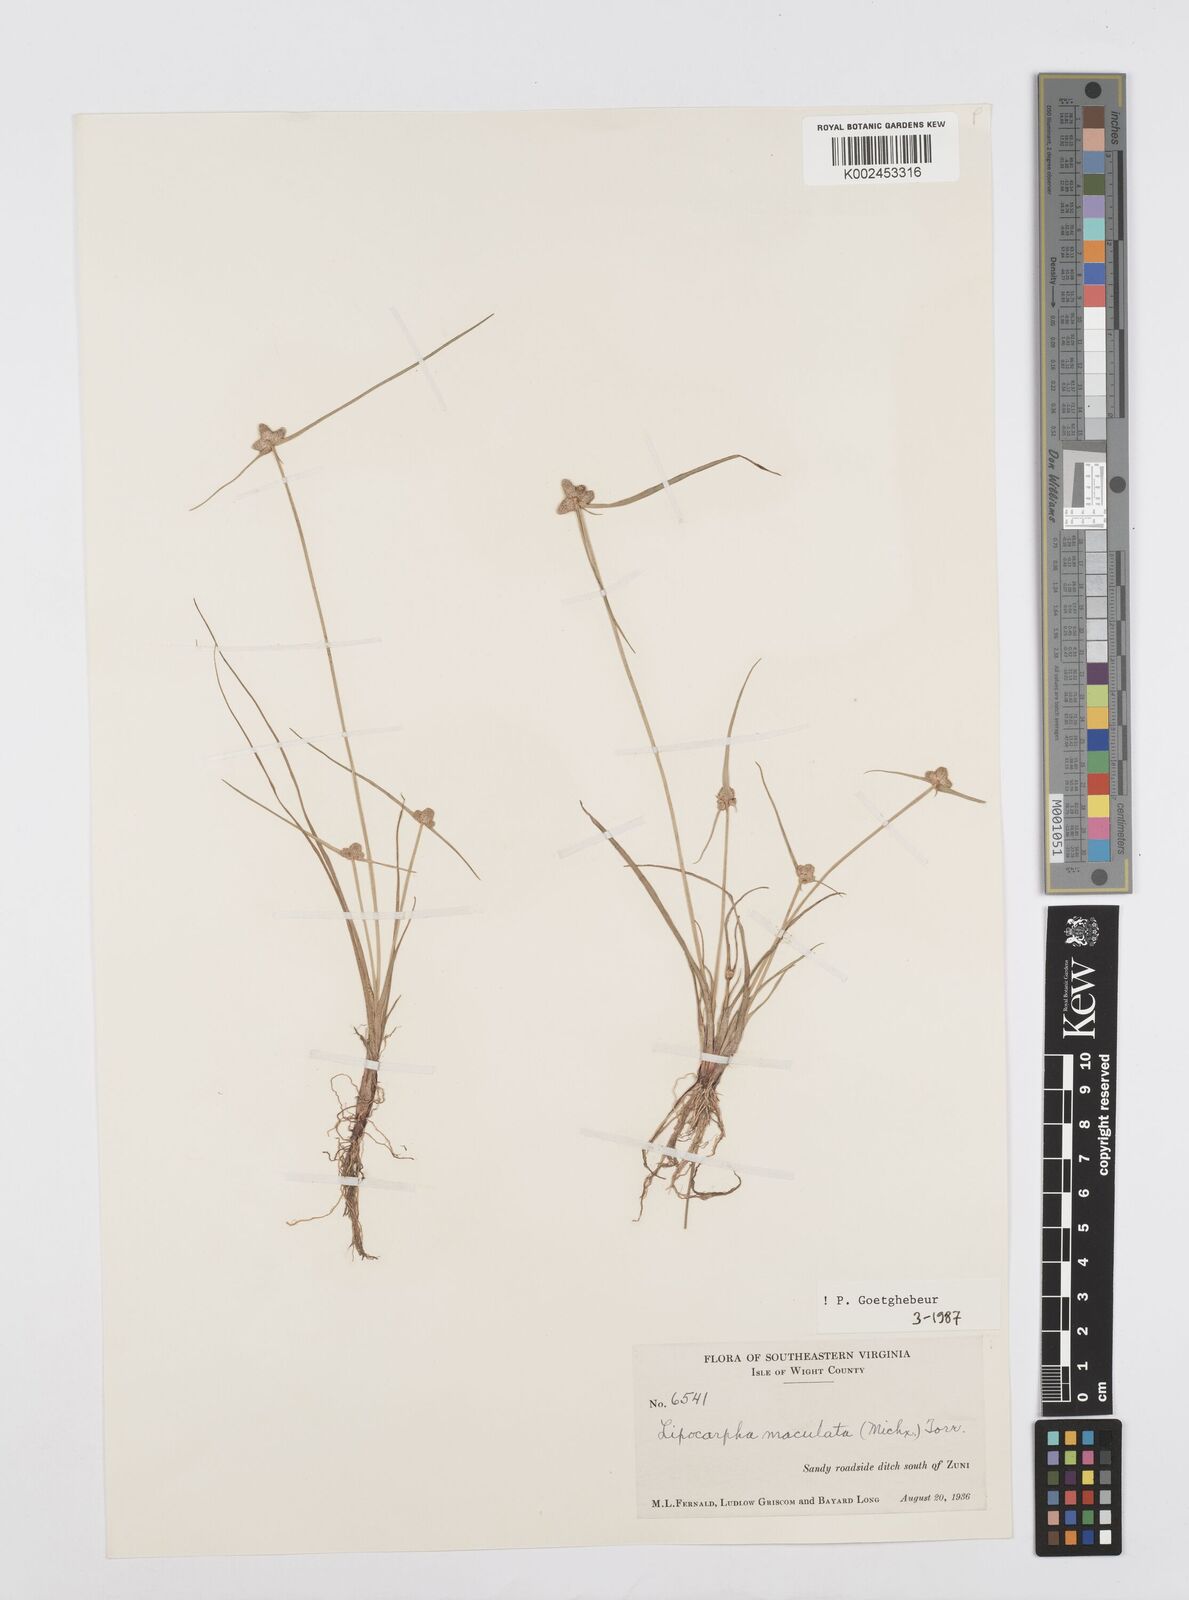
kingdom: Plantae
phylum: Tracheophyta
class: Liliopsida
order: Poales
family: Cyperaceae
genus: Cyperus
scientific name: Cyperus maculatus
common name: Maculated sedge
